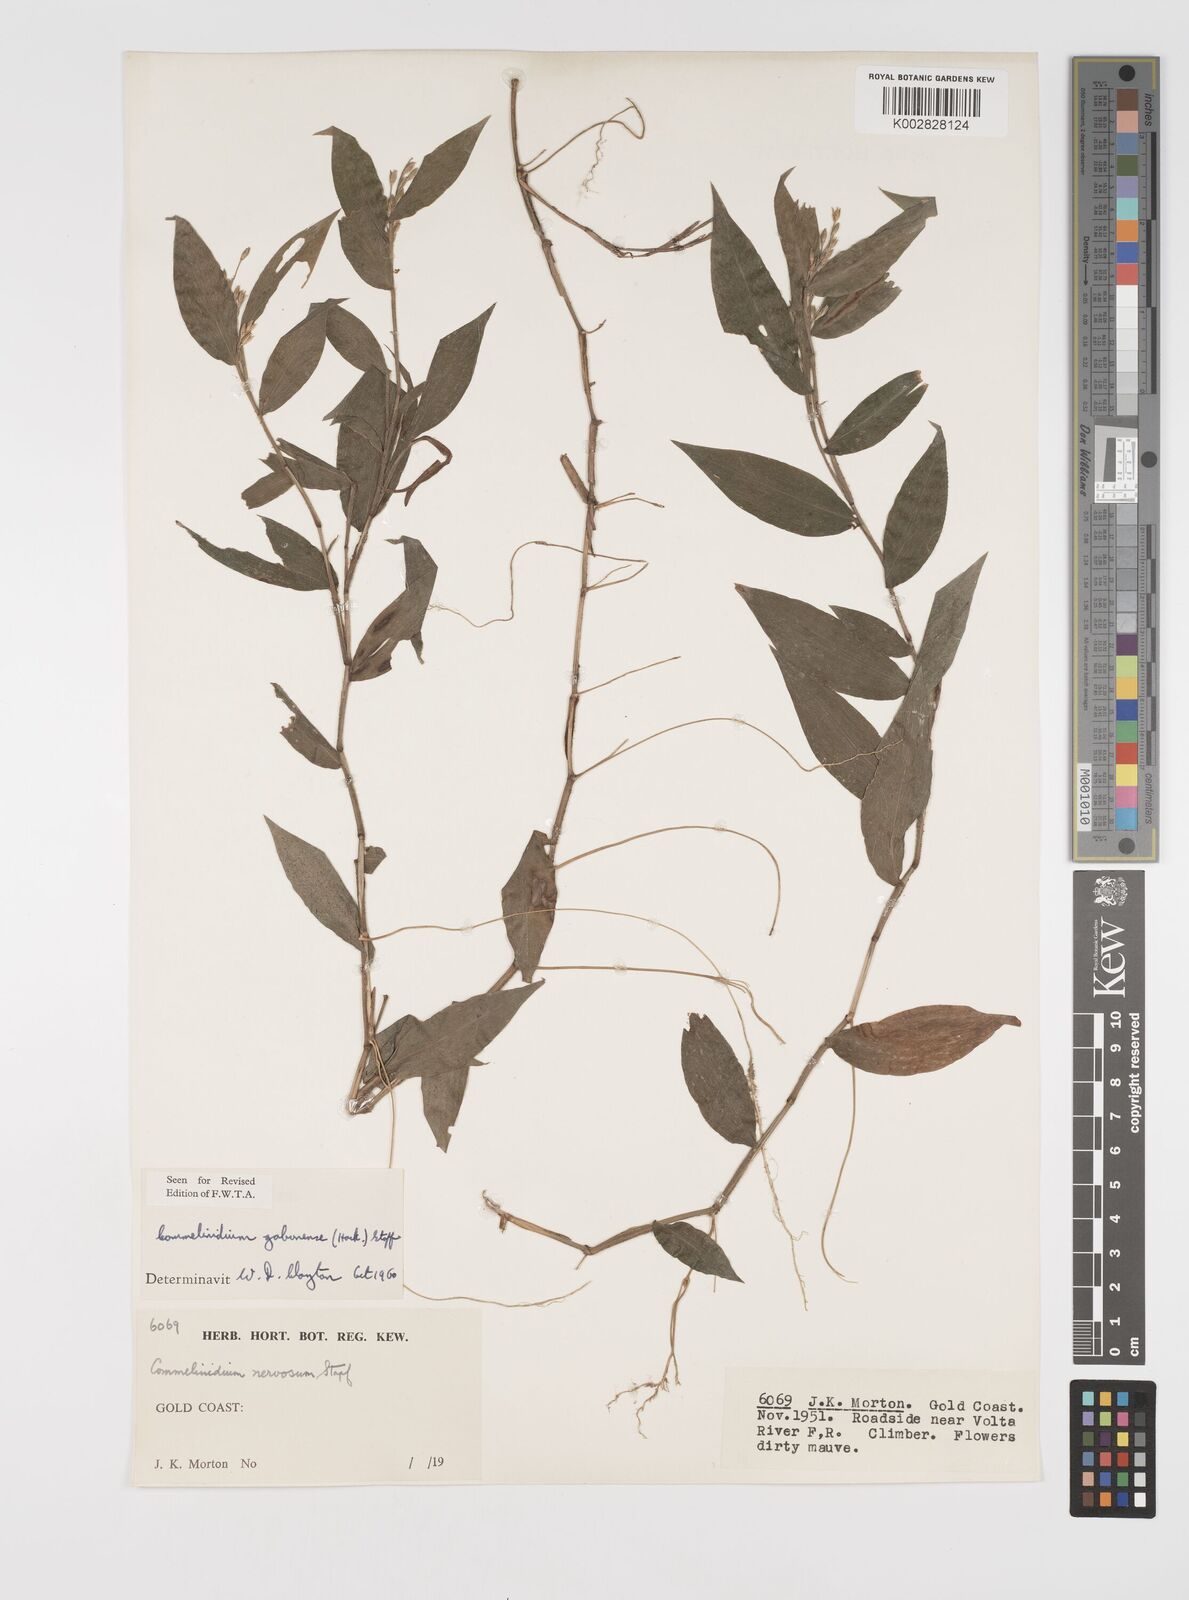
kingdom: Plantae
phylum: Tracheophyta
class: Liliopsida
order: Poales
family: Poaceae
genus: Acroceras
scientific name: Acroceras gabunense
